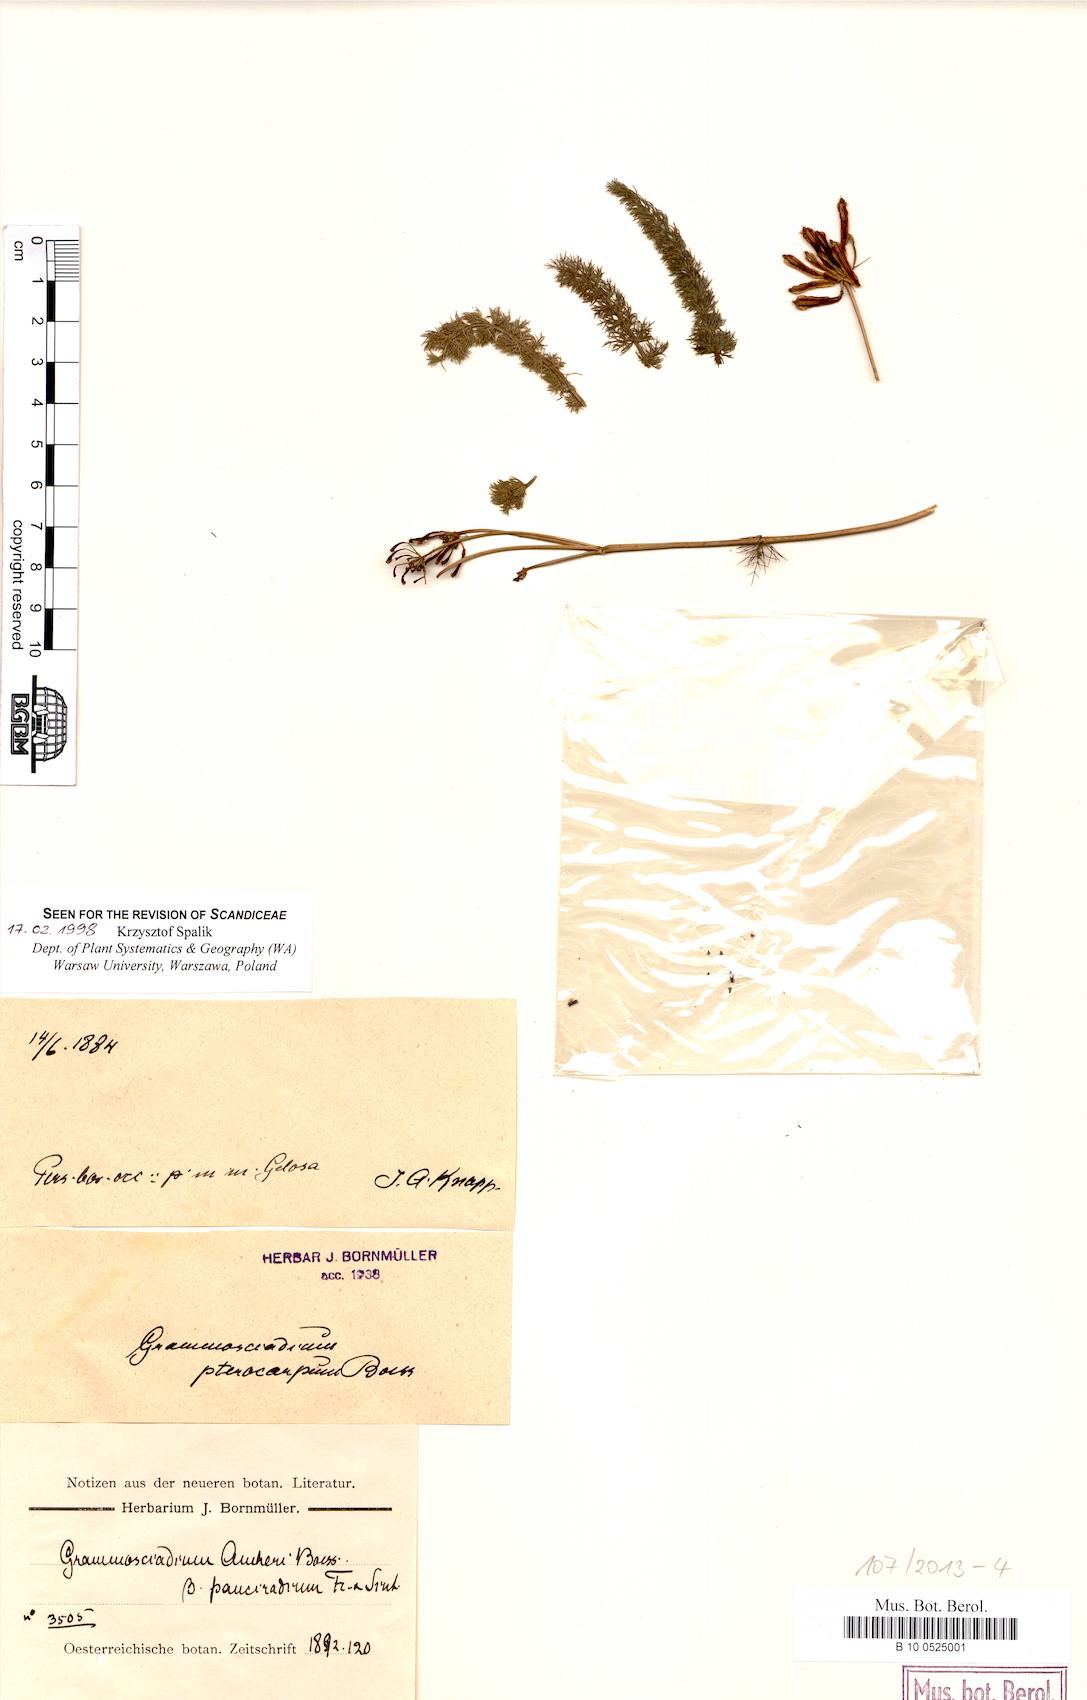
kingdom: Plantae
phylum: Tracheophyta
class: Magnoliopsida
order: Apiales
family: Apiaceae
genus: Caropodium
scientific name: Caropodium pterocarpum
